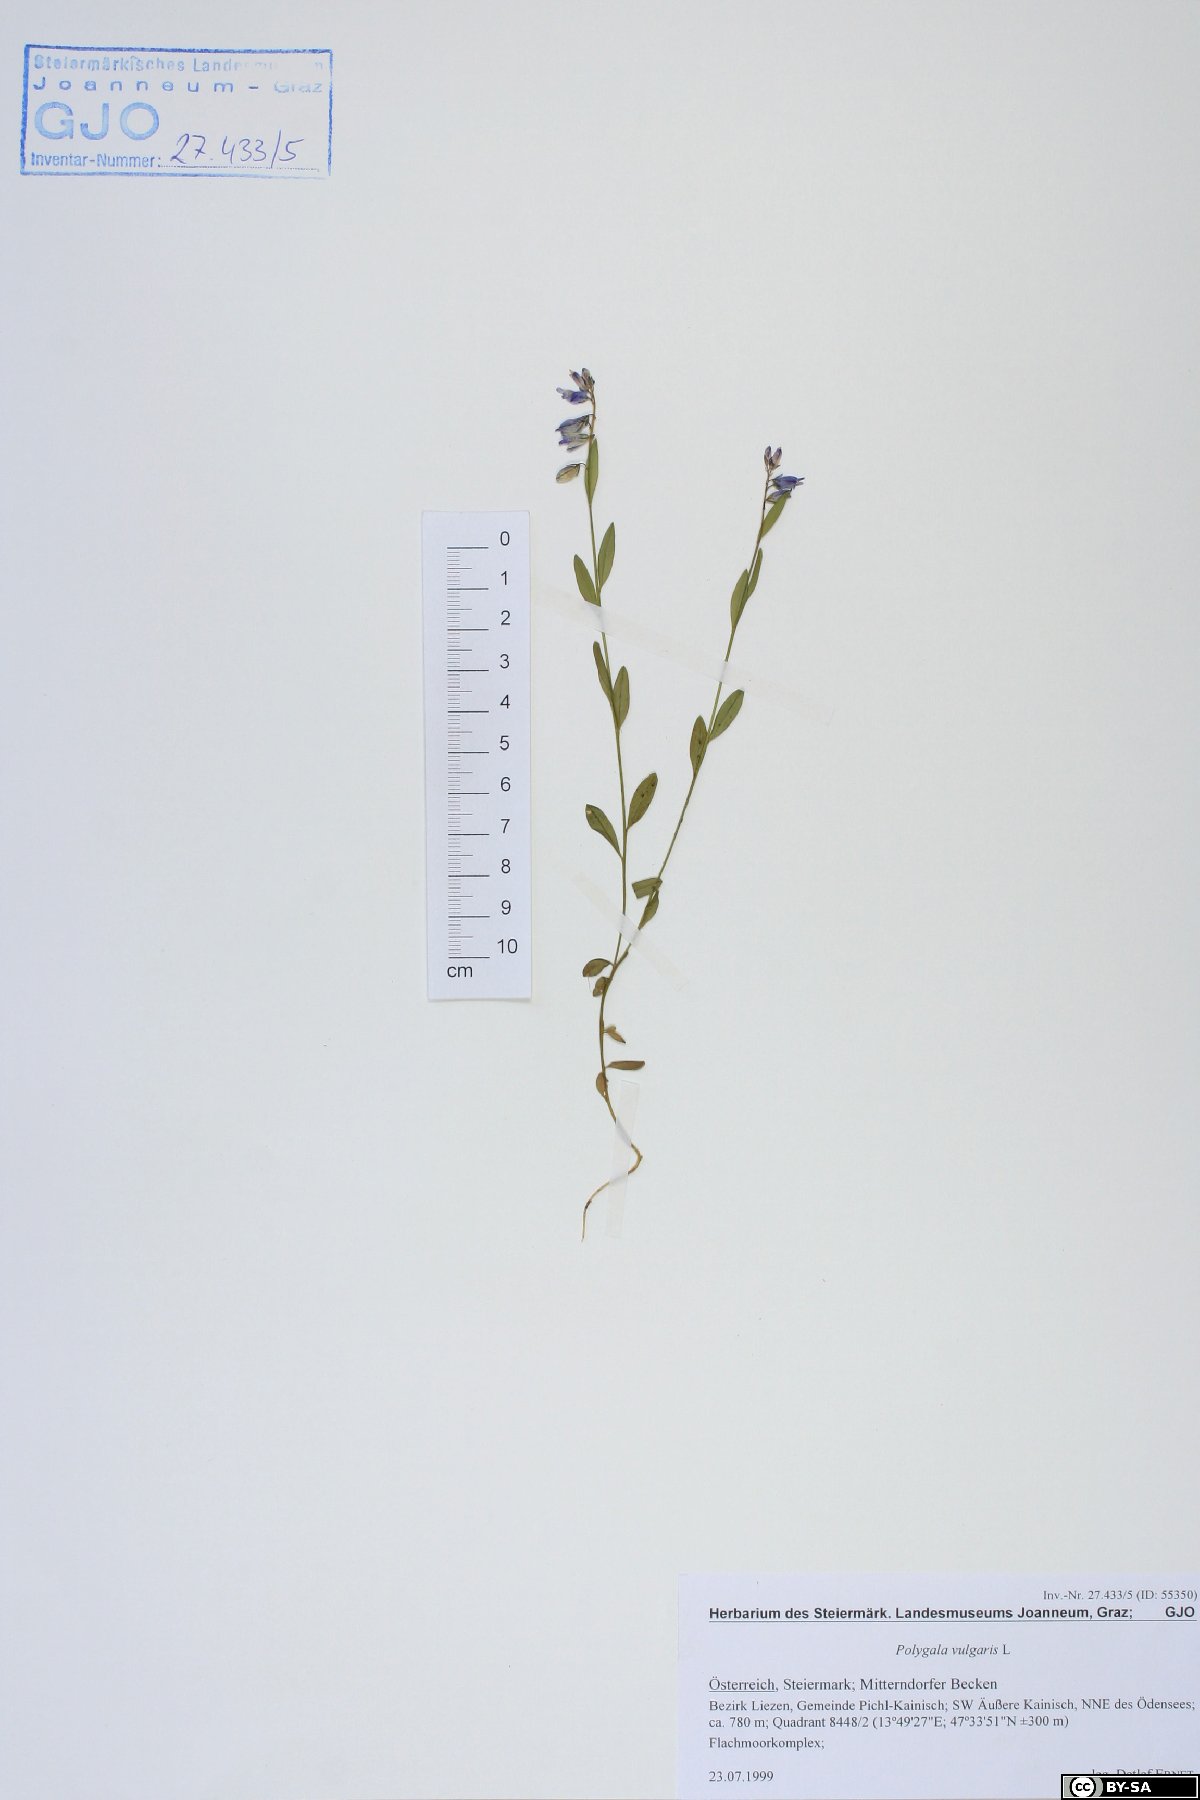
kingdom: Plantae
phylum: Tracheophyta
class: Magnoliopsida
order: Fabales
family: Polygalaceae
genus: Polygala
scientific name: Polygala vulgaris
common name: Common milkwort
